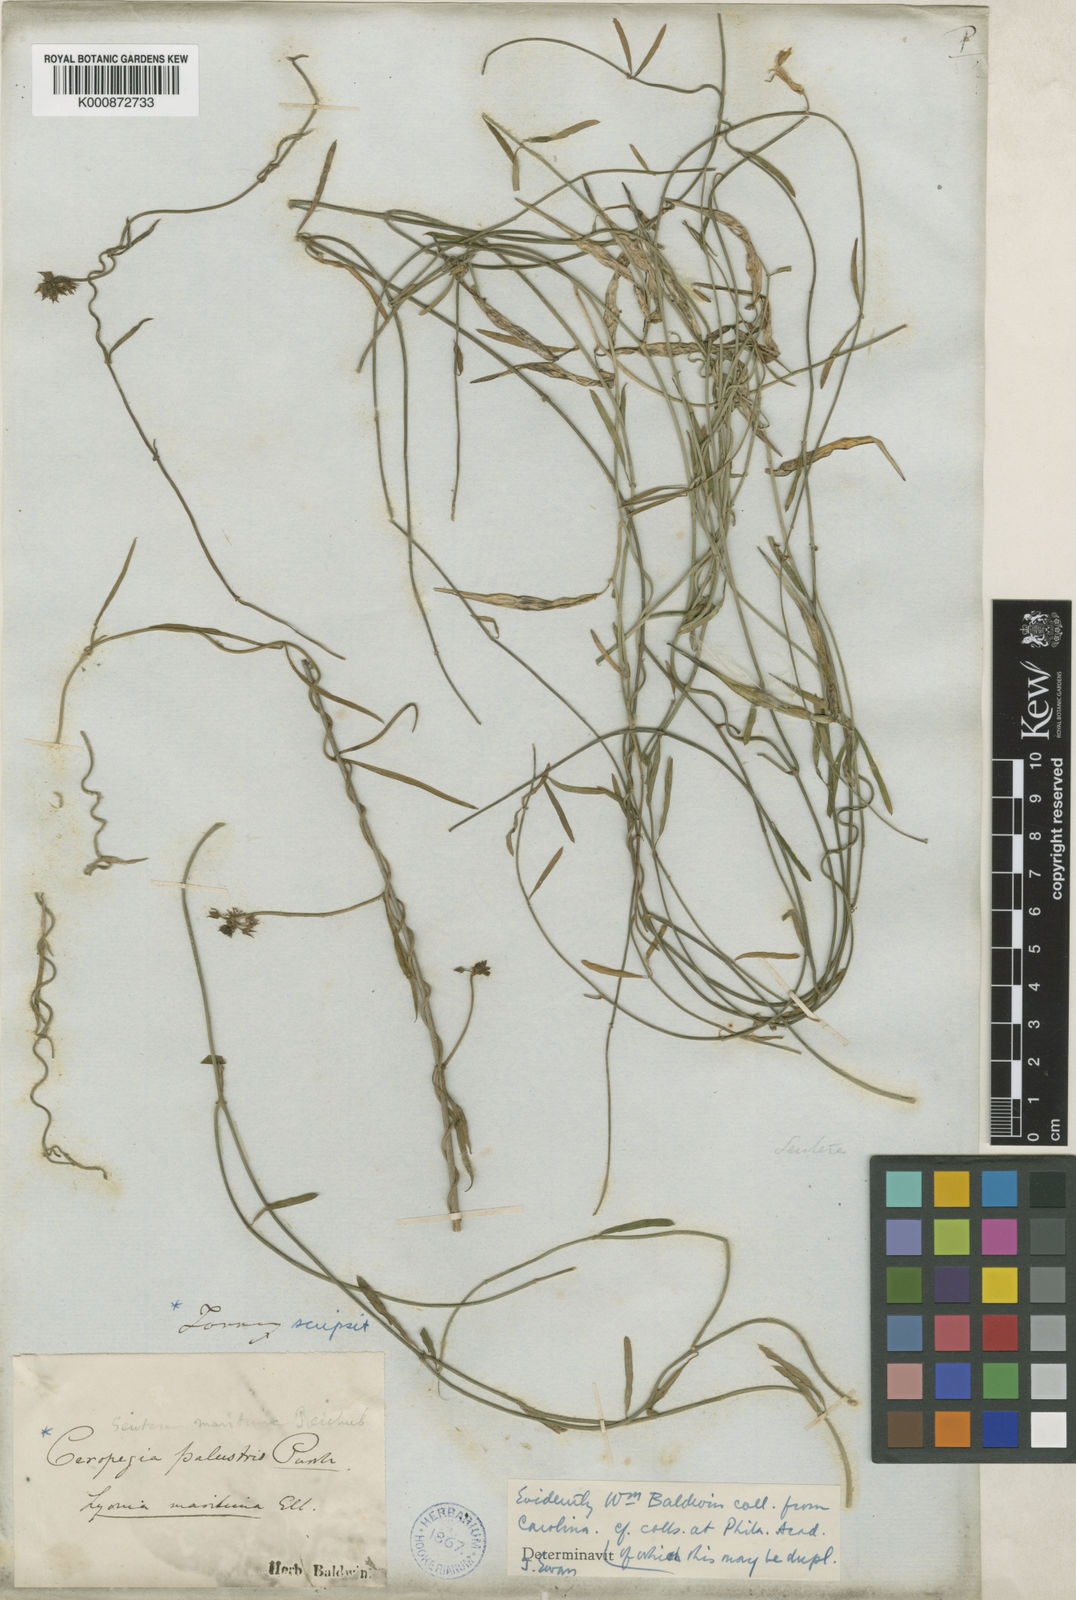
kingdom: Plantae
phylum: Tracheophyta
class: Magnoliopsida
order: Gentianales
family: Apocynaceae
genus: Pattalias
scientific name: Pattalias palustris
